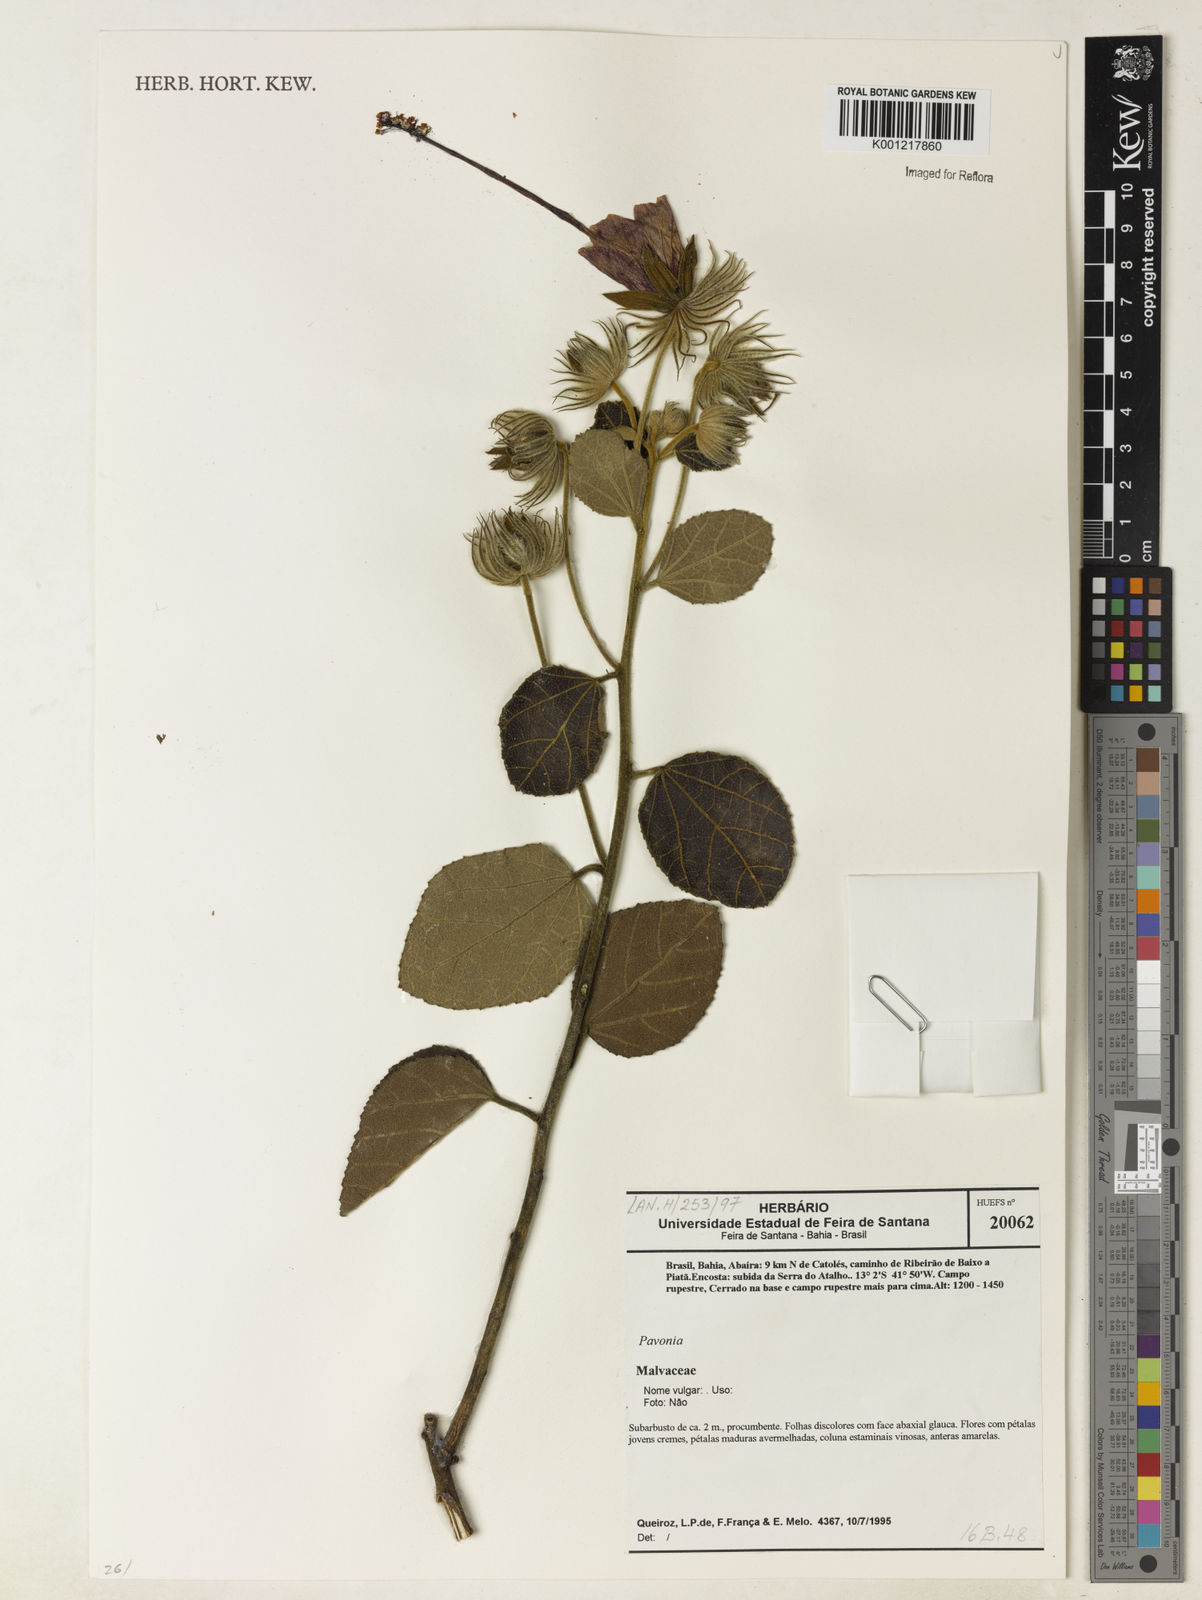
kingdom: Plantae
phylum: Tracheophyta
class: Magnoliopsida
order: Malvales
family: Malvaceae
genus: Pavonia
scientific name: Pavonia
